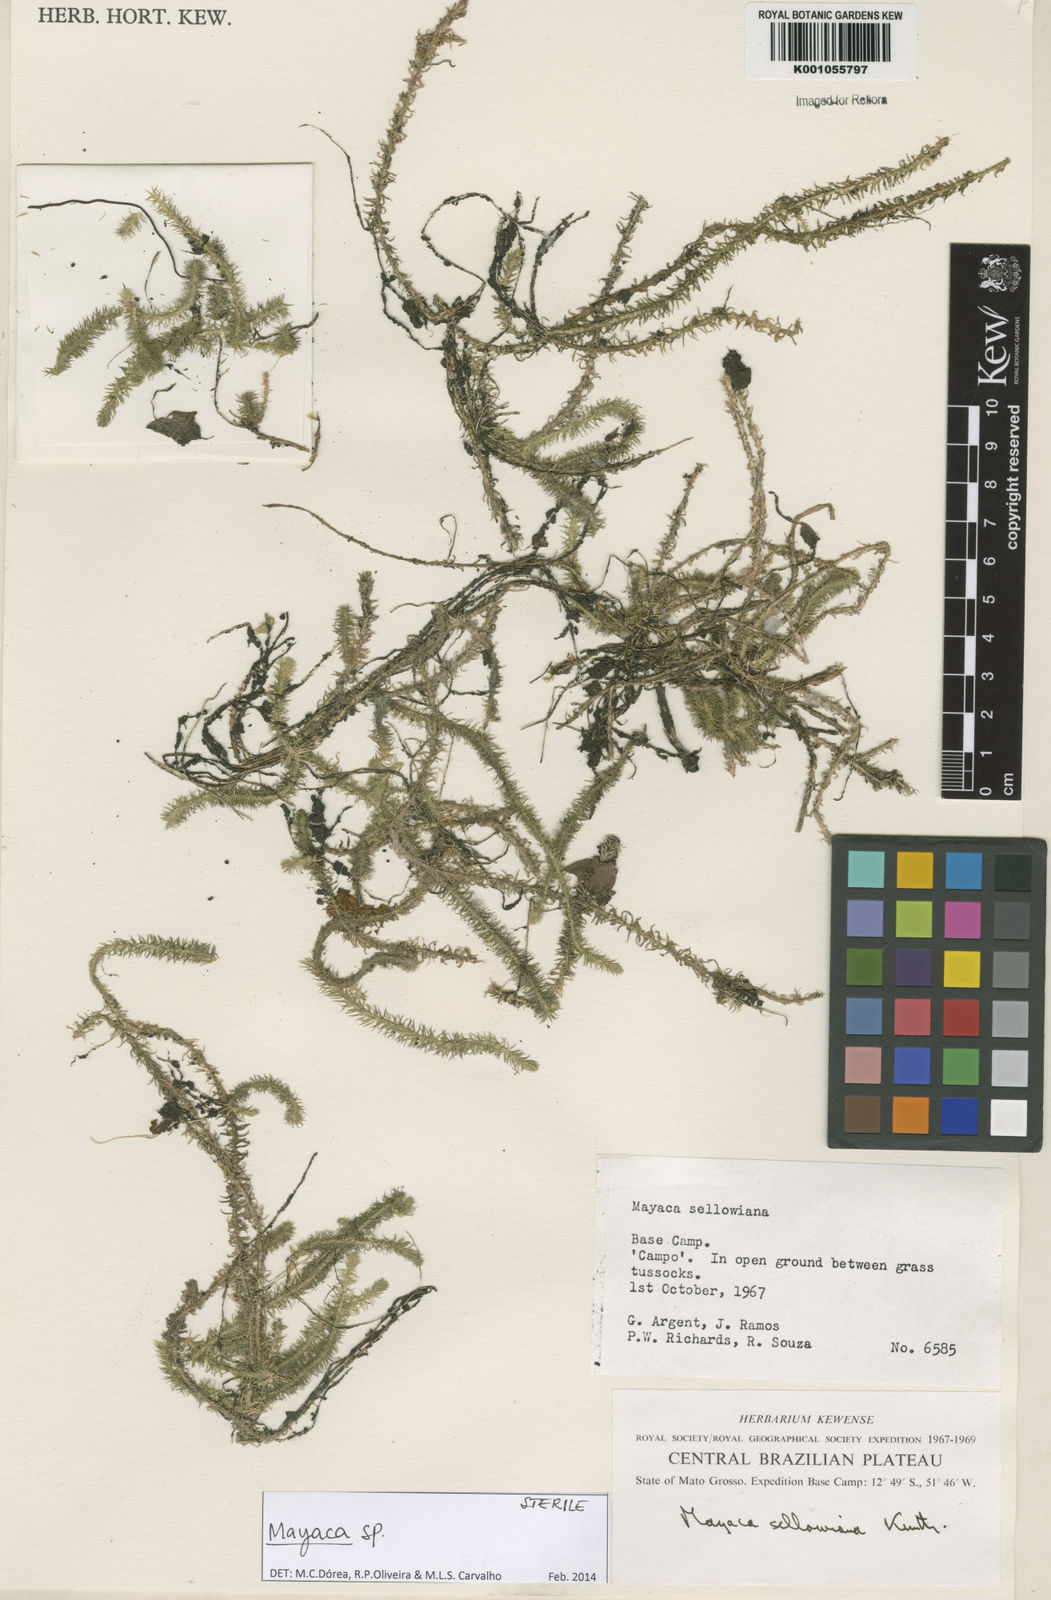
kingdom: Plantae
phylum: Tracheophyta
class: Liliopsida
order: Poales
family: Mayacaceae
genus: Mayaca
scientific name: Mayaca sellowiana
